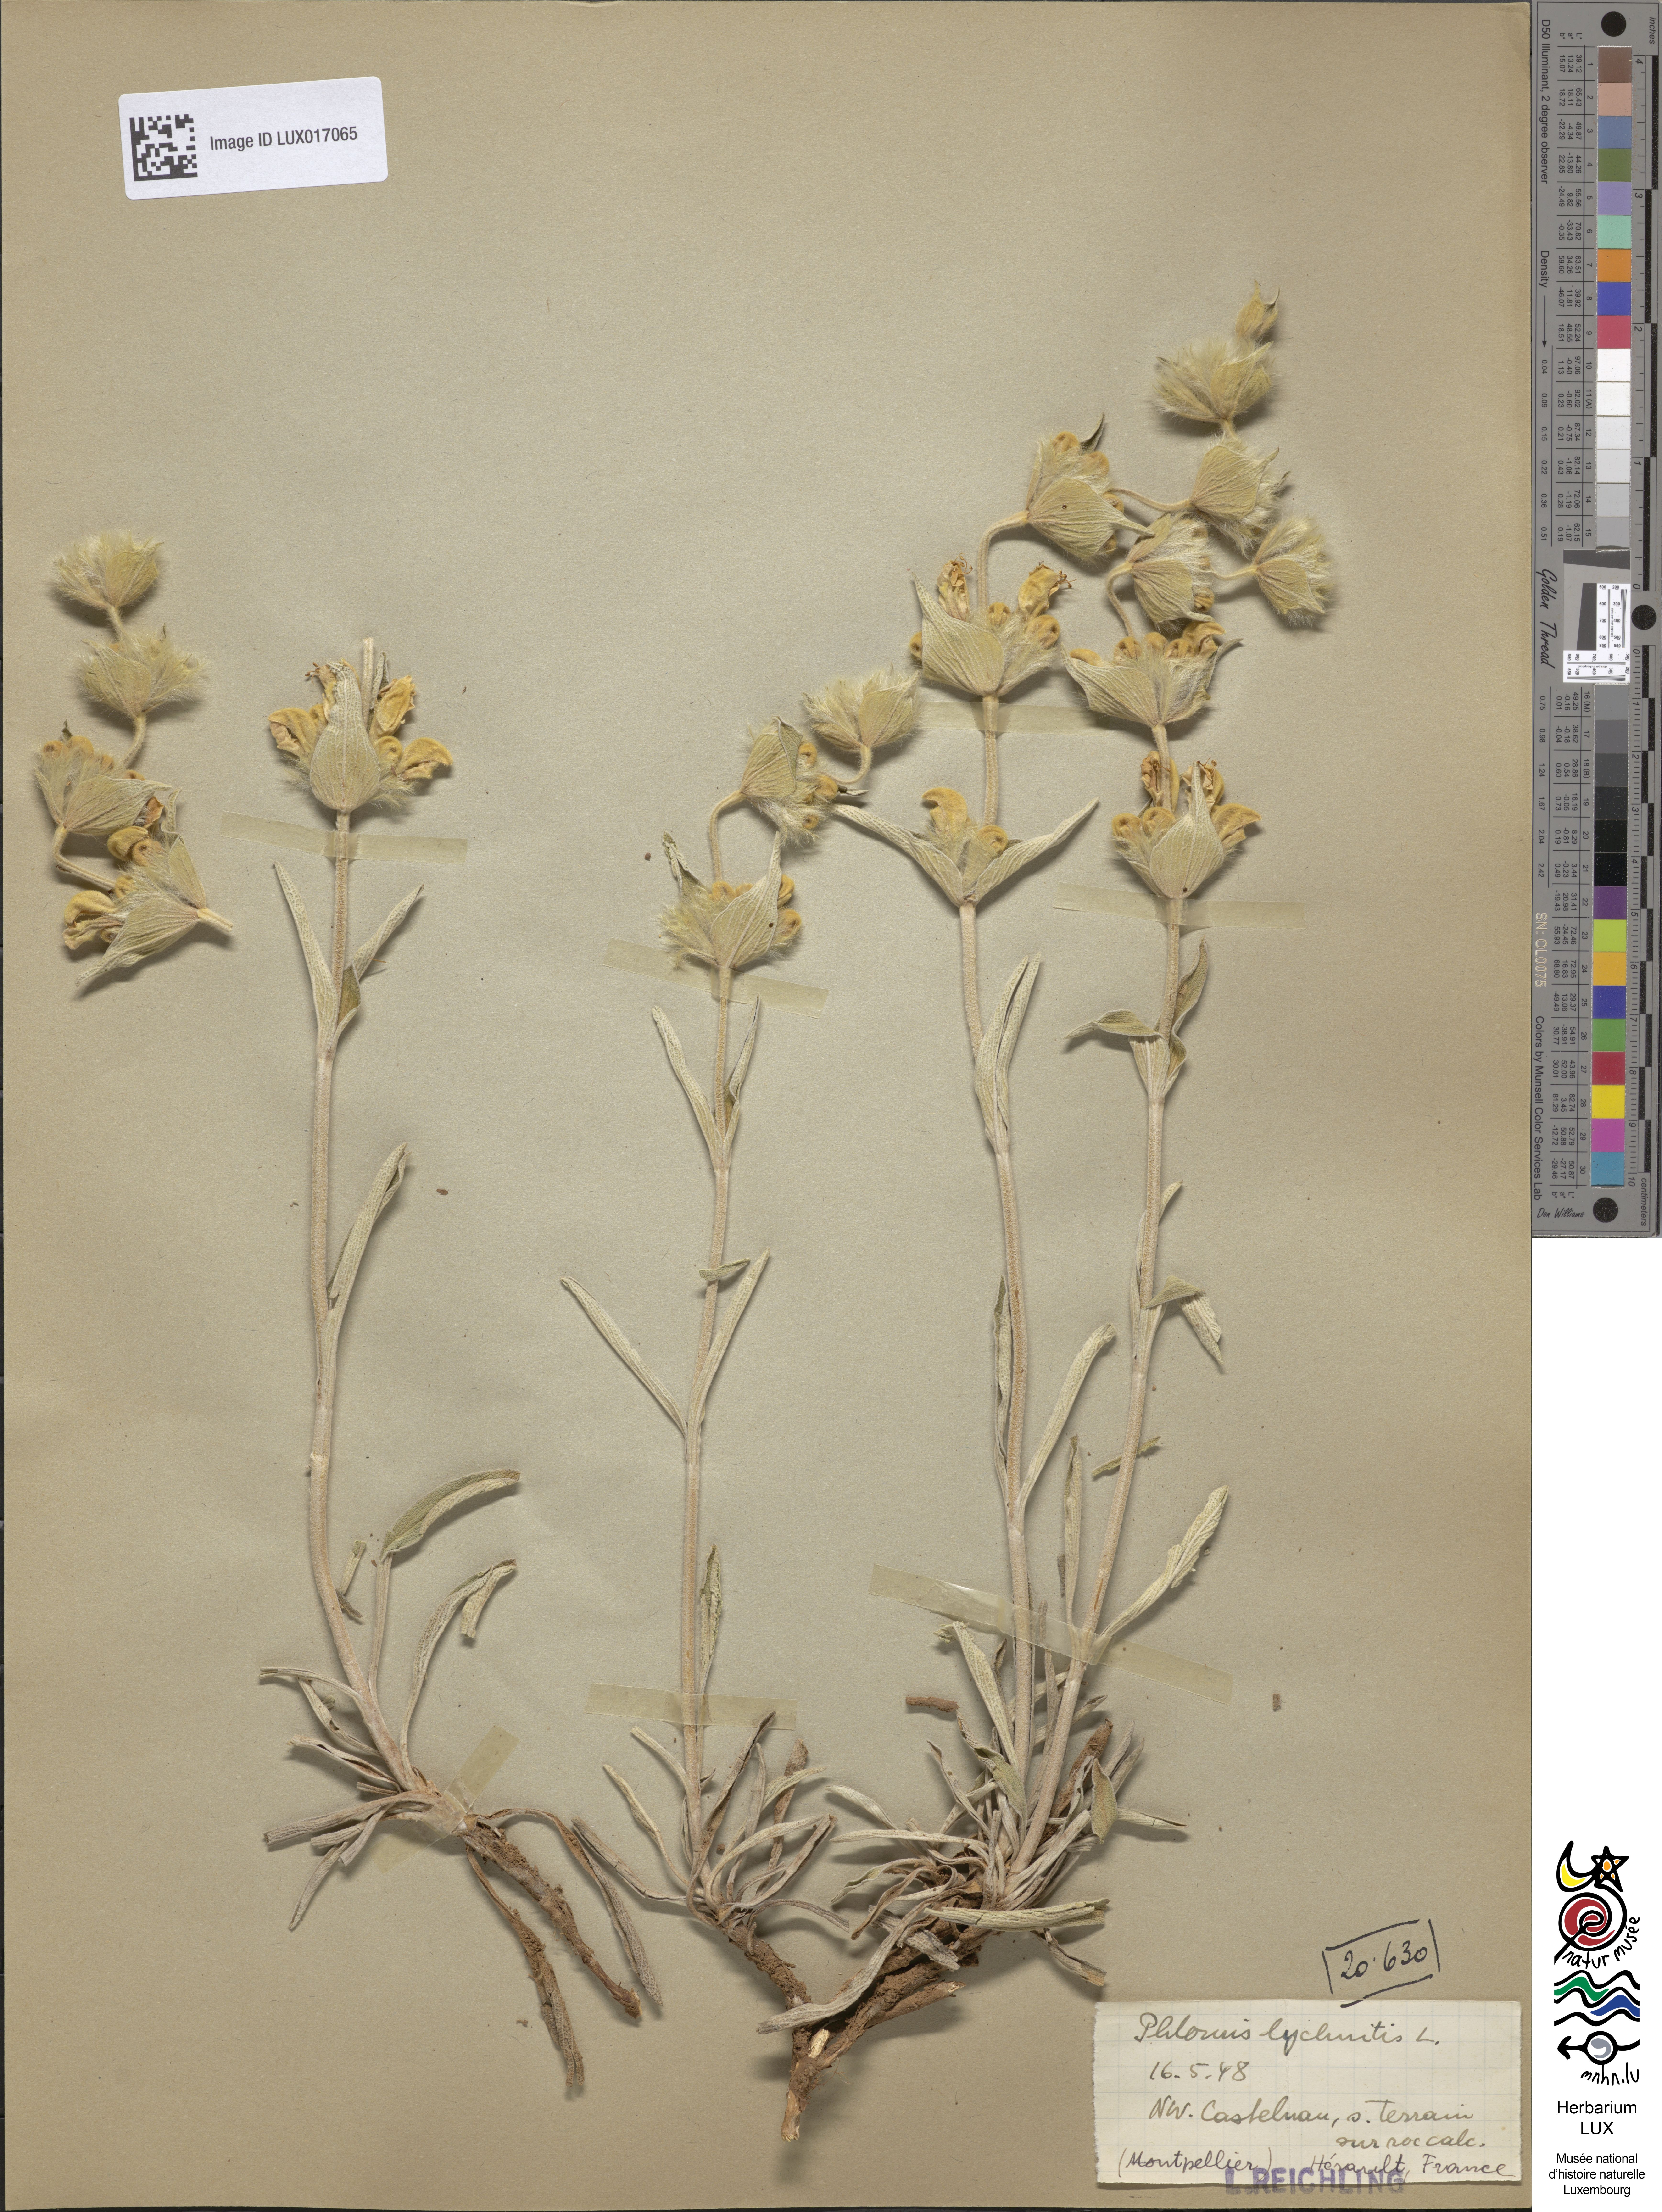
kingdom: Plantae
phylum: Tracheophyta
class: Magnoliopsida
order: Lamiales
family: Lamiaceae
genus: Phlomis
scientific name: Phlomis lychnitis
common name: Lampwickplant
